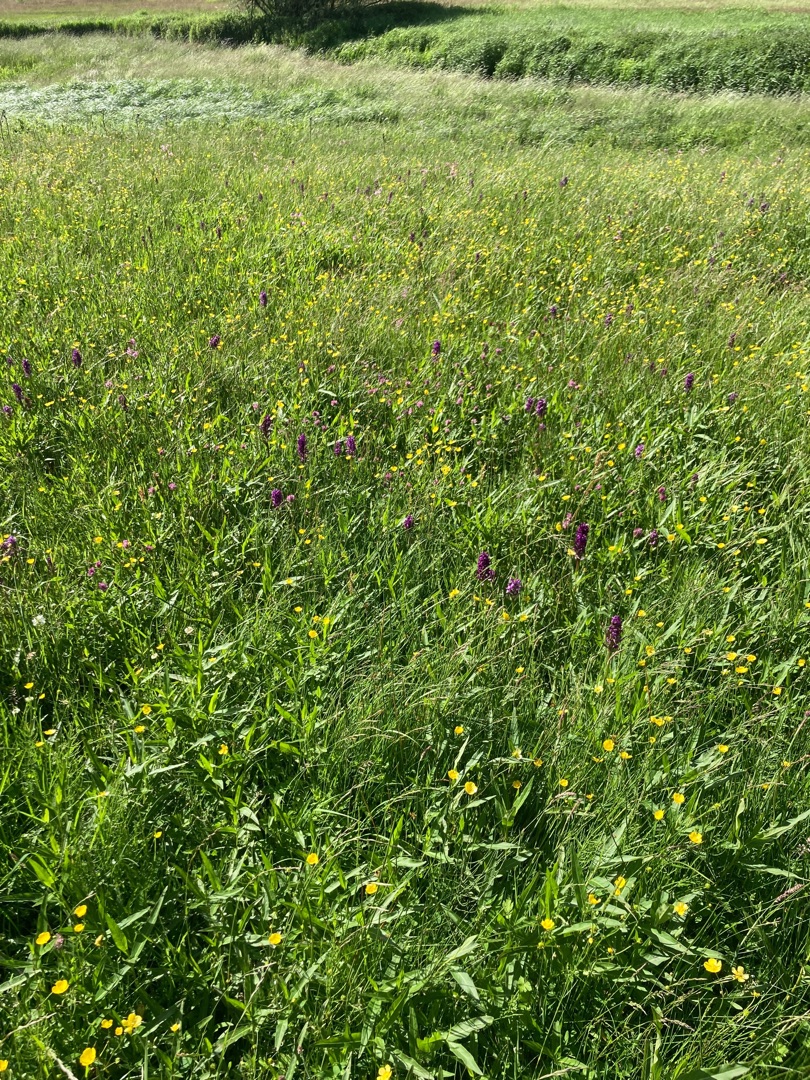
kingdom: Plantae
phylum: Tracheophyta
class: Liliopsida
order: Asparagales
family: Orchidaceae
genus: Dactylorhiza
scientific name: Dactylorhiza majalis
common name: Maj-gøgeurt
